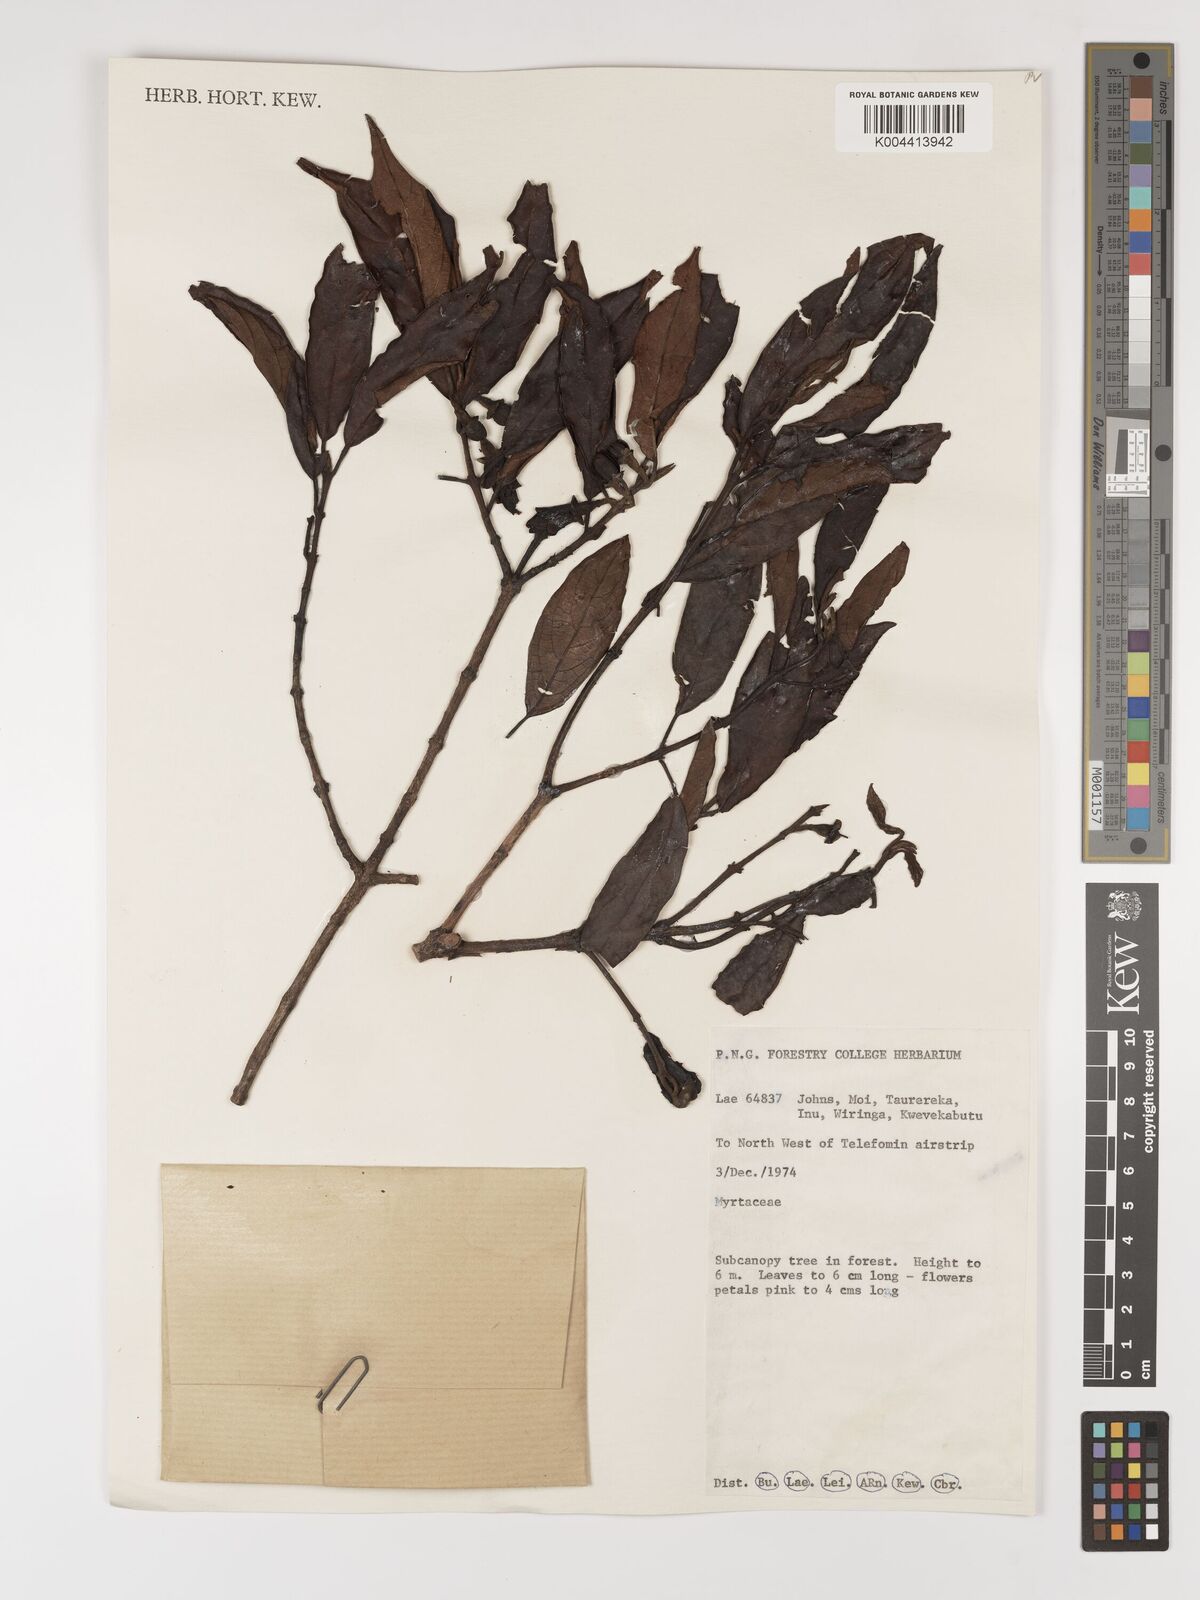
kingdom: Plantae
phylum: Tracheophyta
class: Magnoliopsida
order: Myrtales
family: Myrtaceae
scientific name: Myrtaceae
